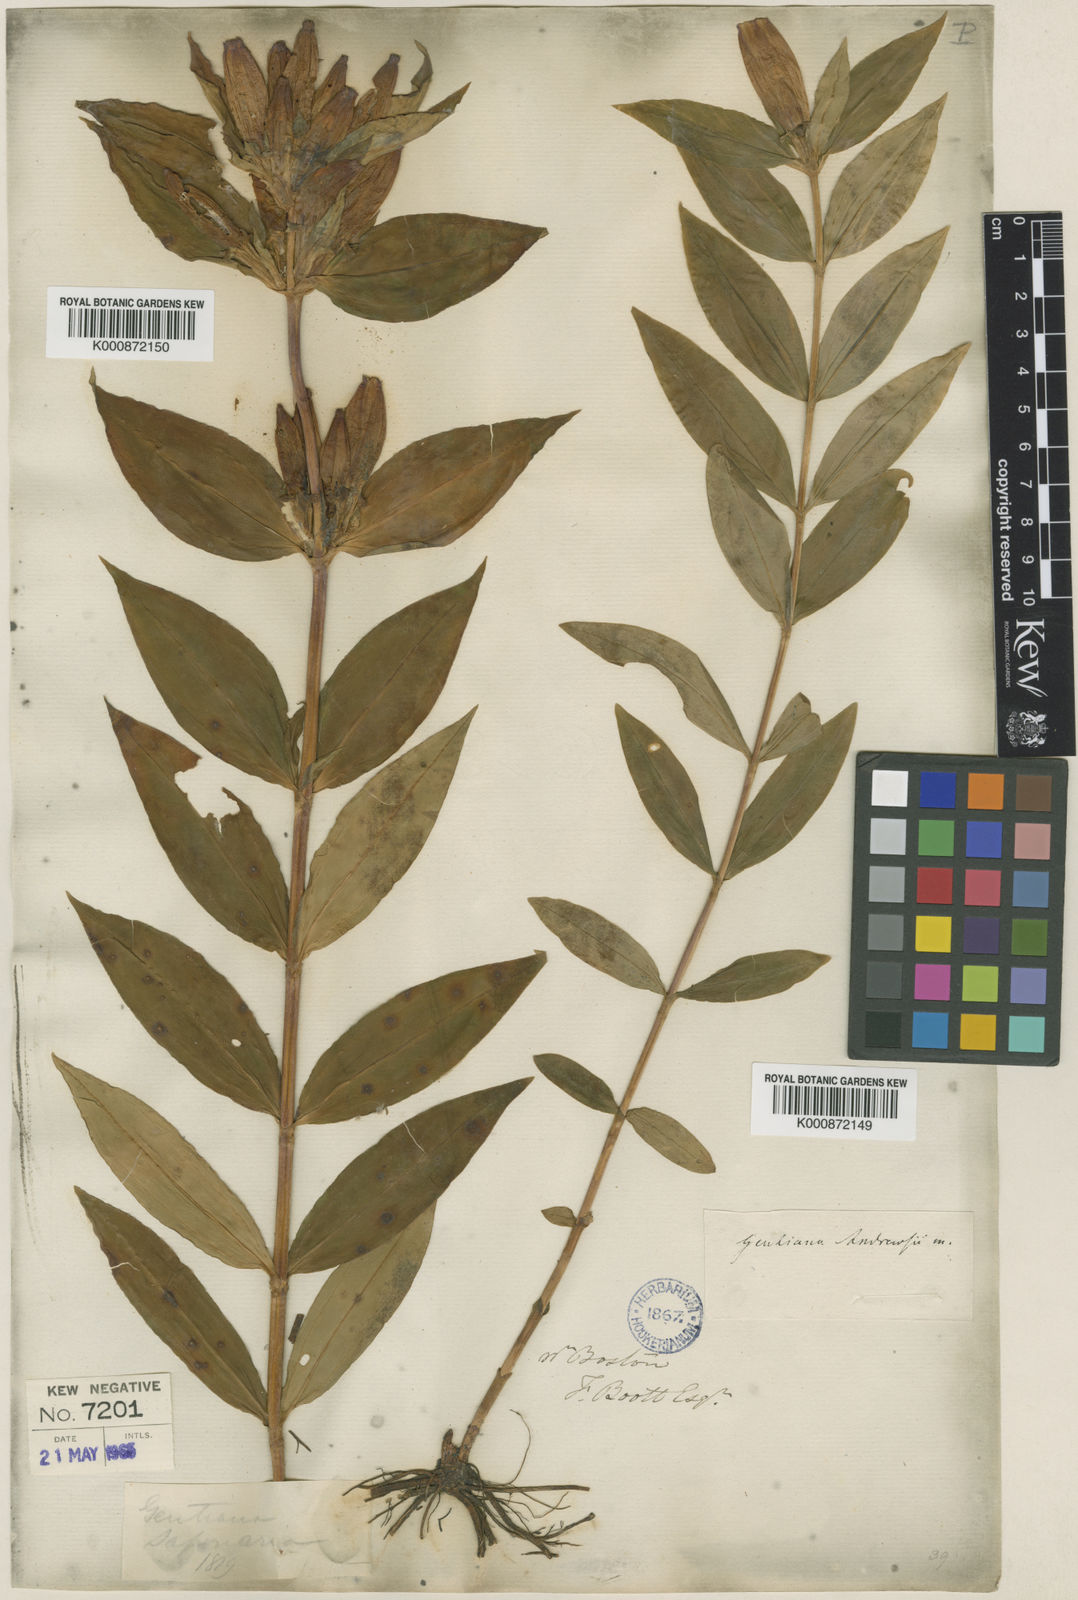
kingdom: Plantae
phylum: Tracheophyta
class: Magnoliopsida
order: Gentianales
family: Gentianaceae
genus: Gentiana
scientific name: Gentiana andrewsii
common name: Bottle gentian
